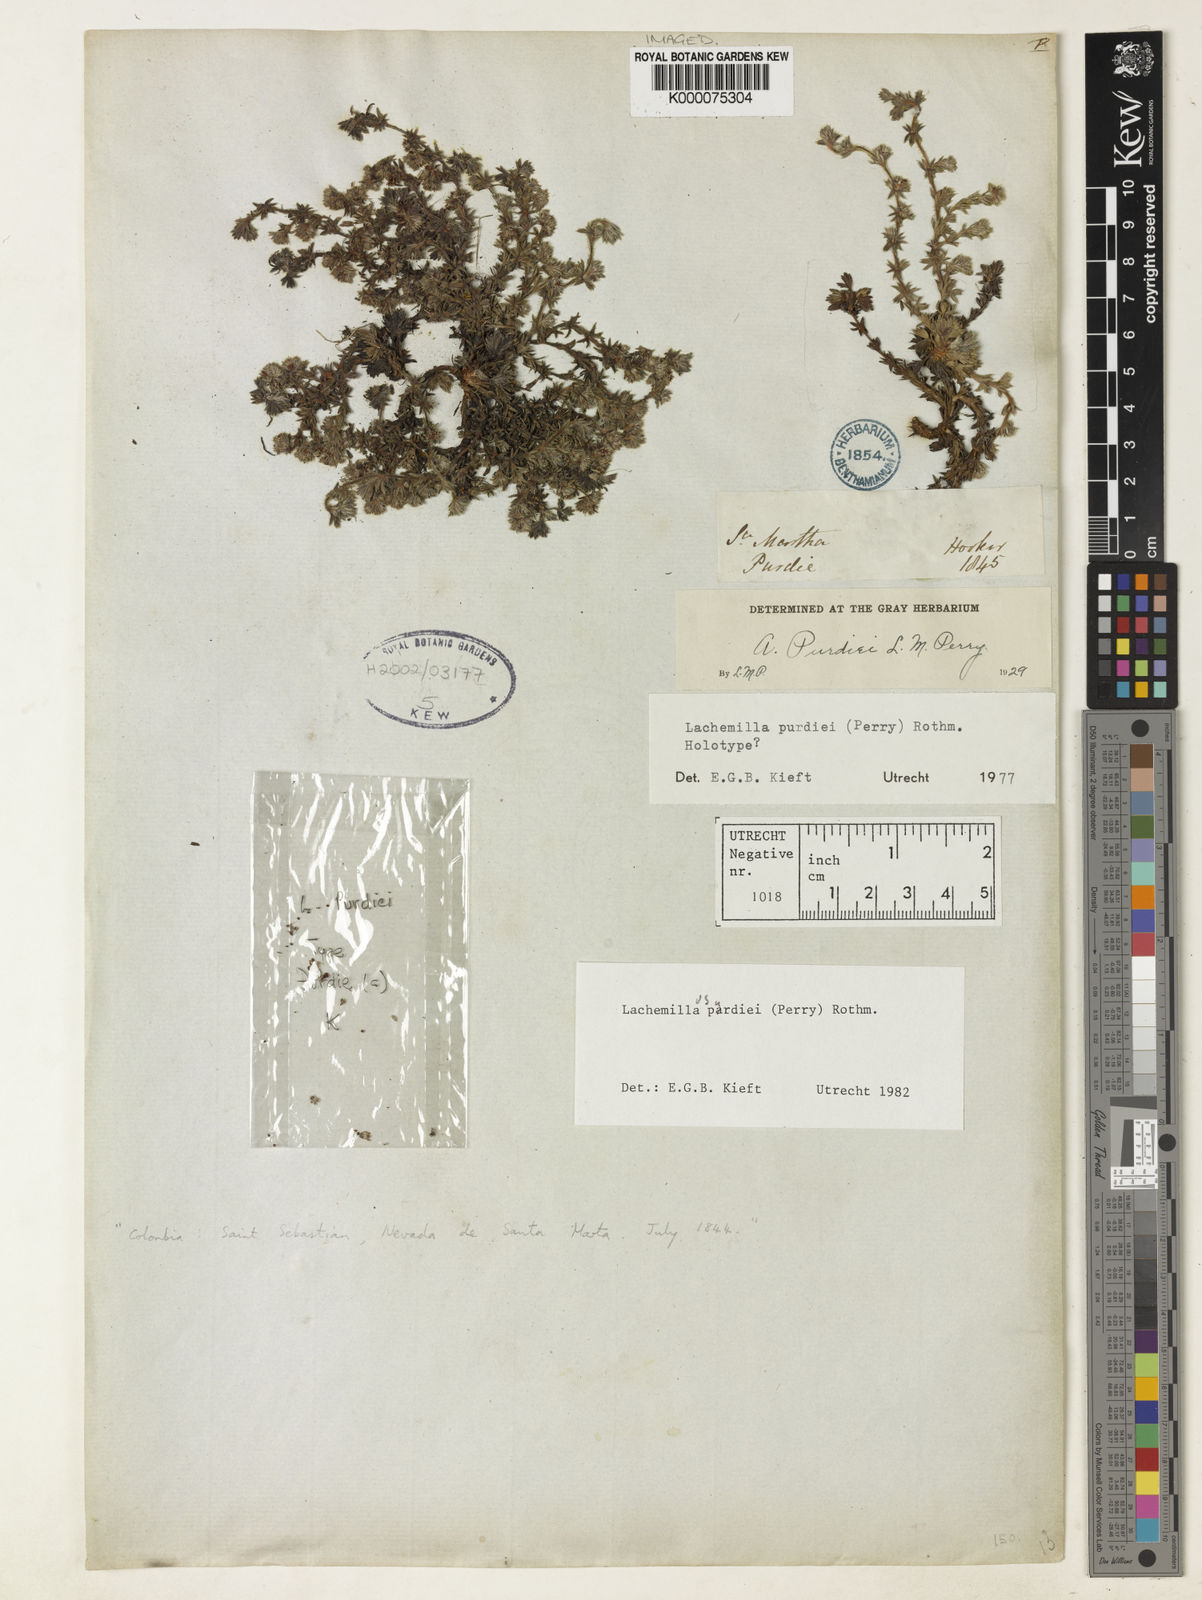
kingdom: Plantae
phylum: Tracheophyta
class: Magnoliopsida
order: Rosales
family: Rosaceae
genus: Lachemilla
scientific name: Lachemilla purdiei
